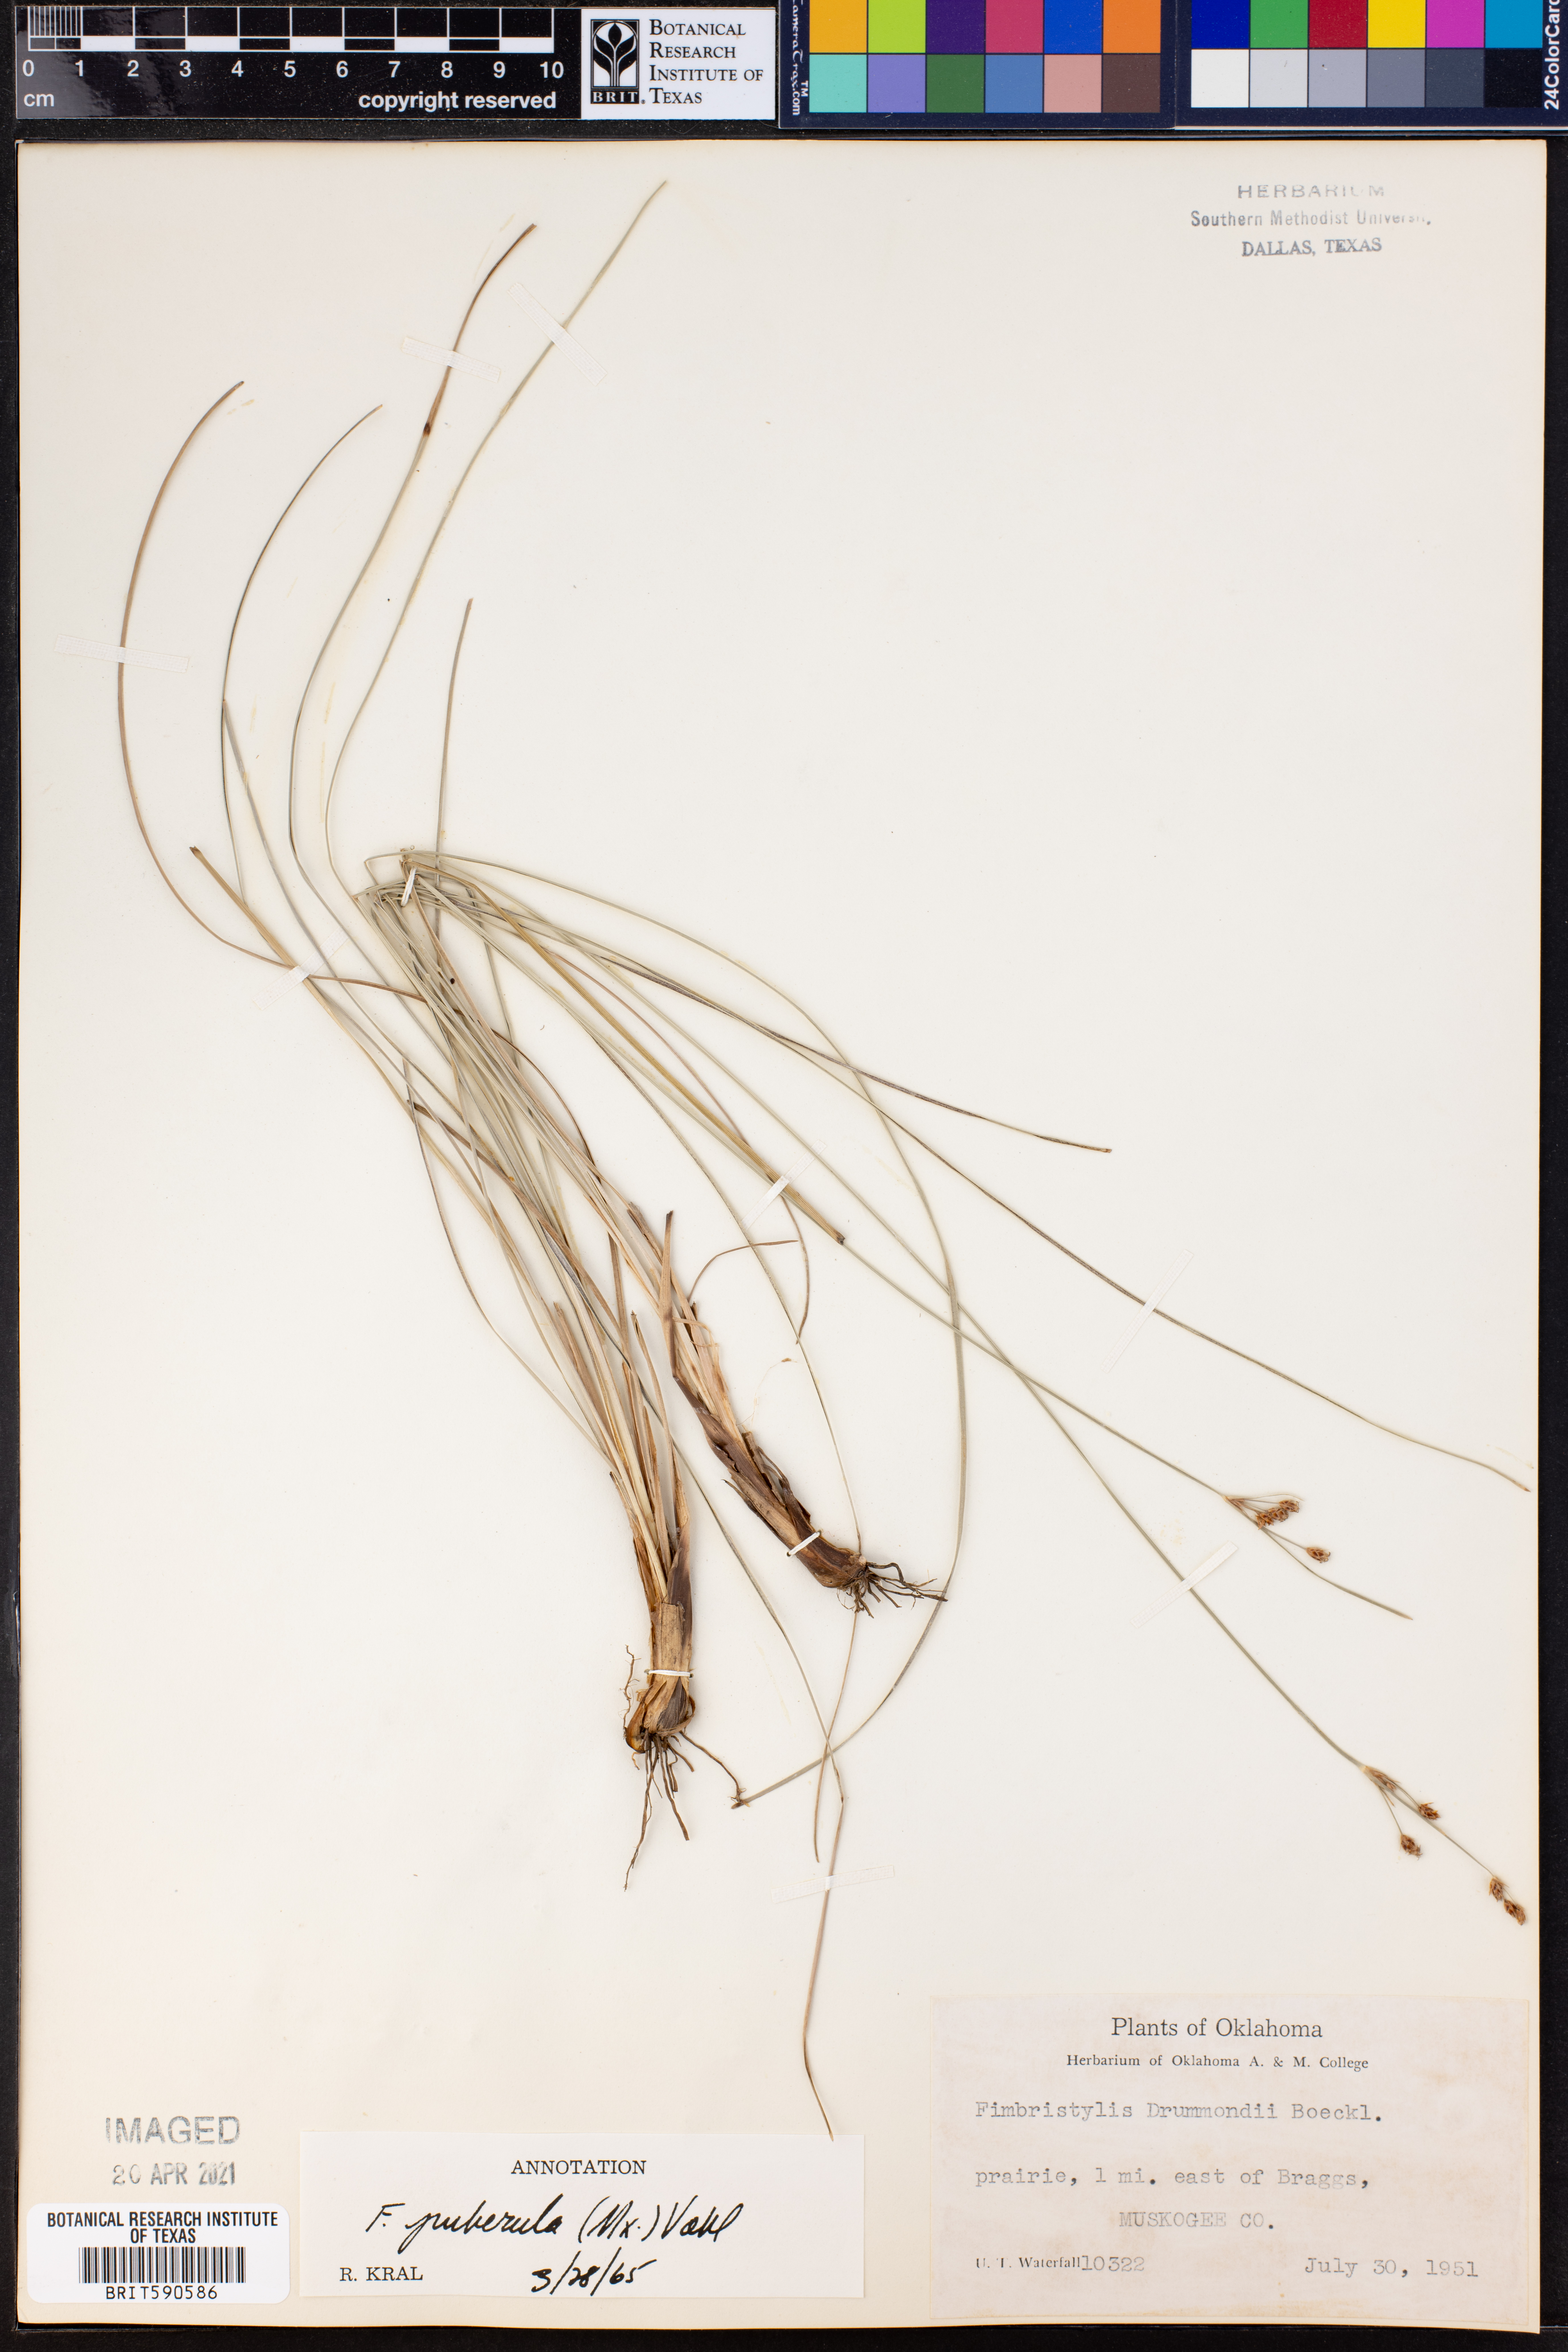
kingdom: Plantae
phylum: Tracheophyta
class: Liliopsida
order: Poales
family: Cyperaceae
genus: Fimbristylis
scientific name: Fimbristylis puberula
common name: Hairy fimbristylis
